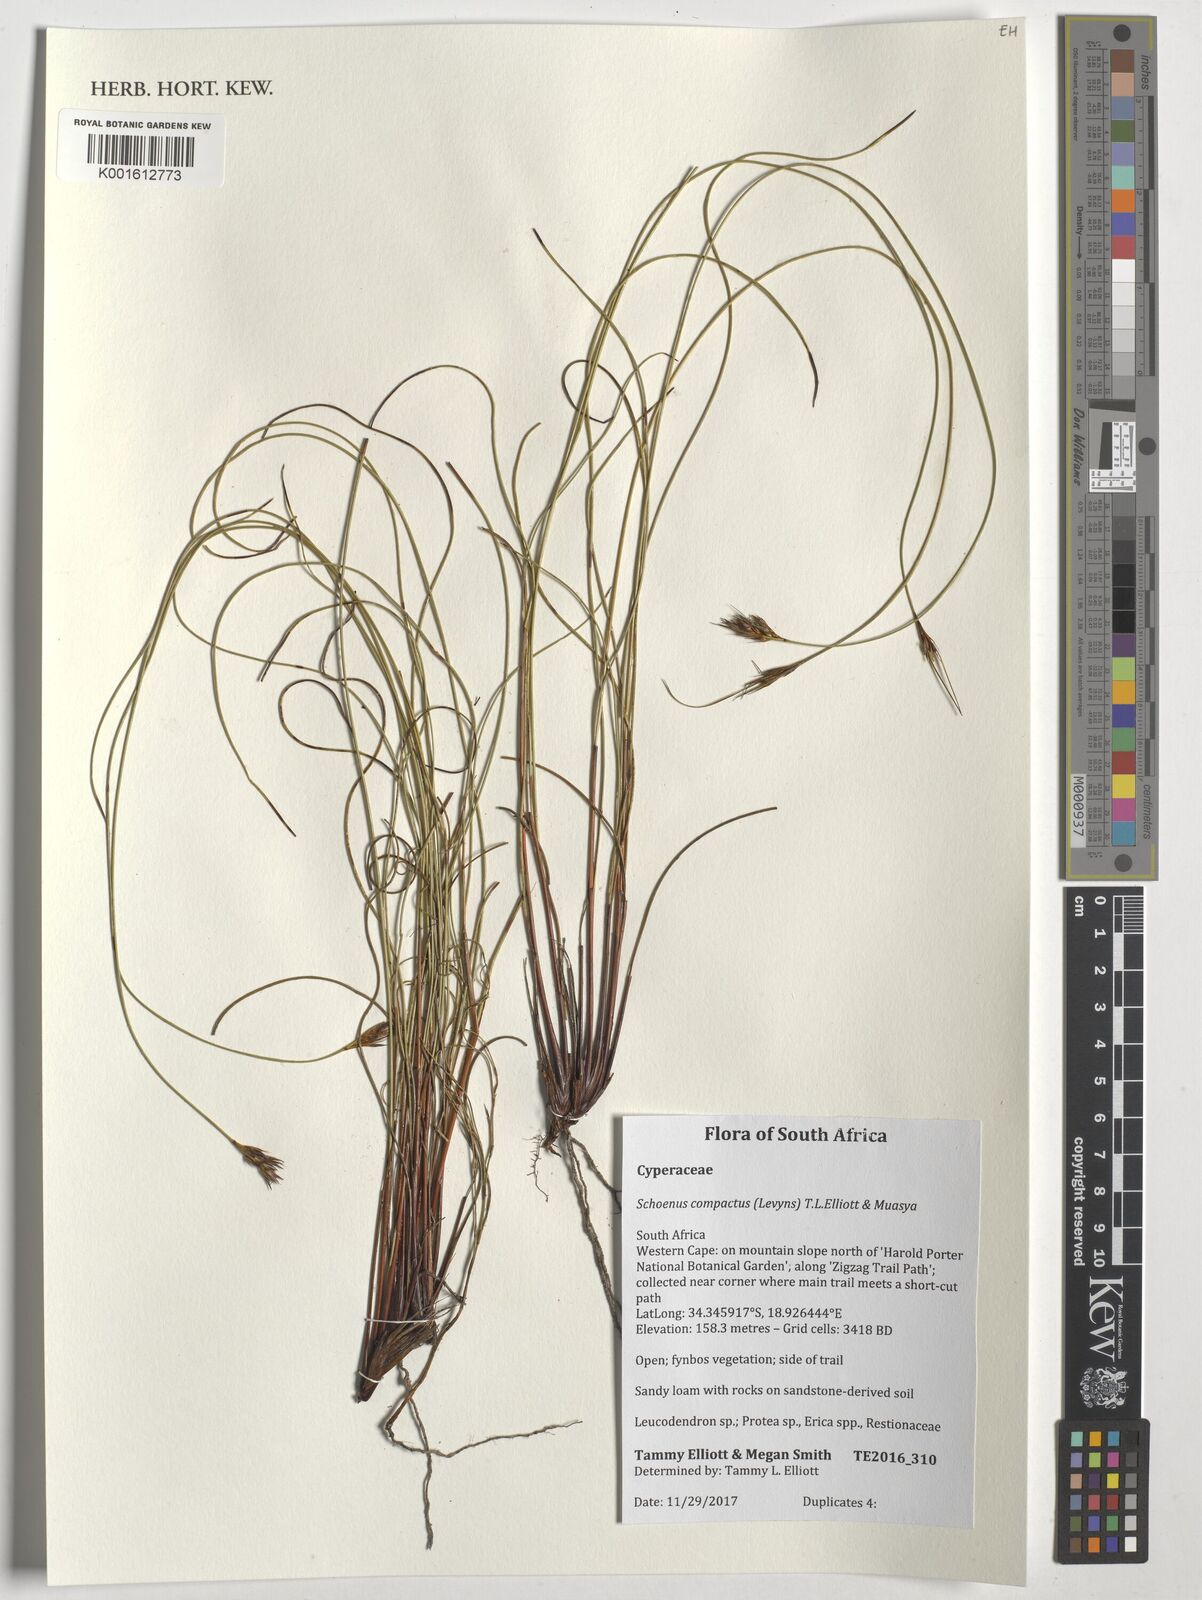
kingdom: Plantae
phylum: Tracheophyta
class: Liliopsida
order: Poales
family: Cyperaceae
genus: Schoenus
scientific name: Schoenus compactus
